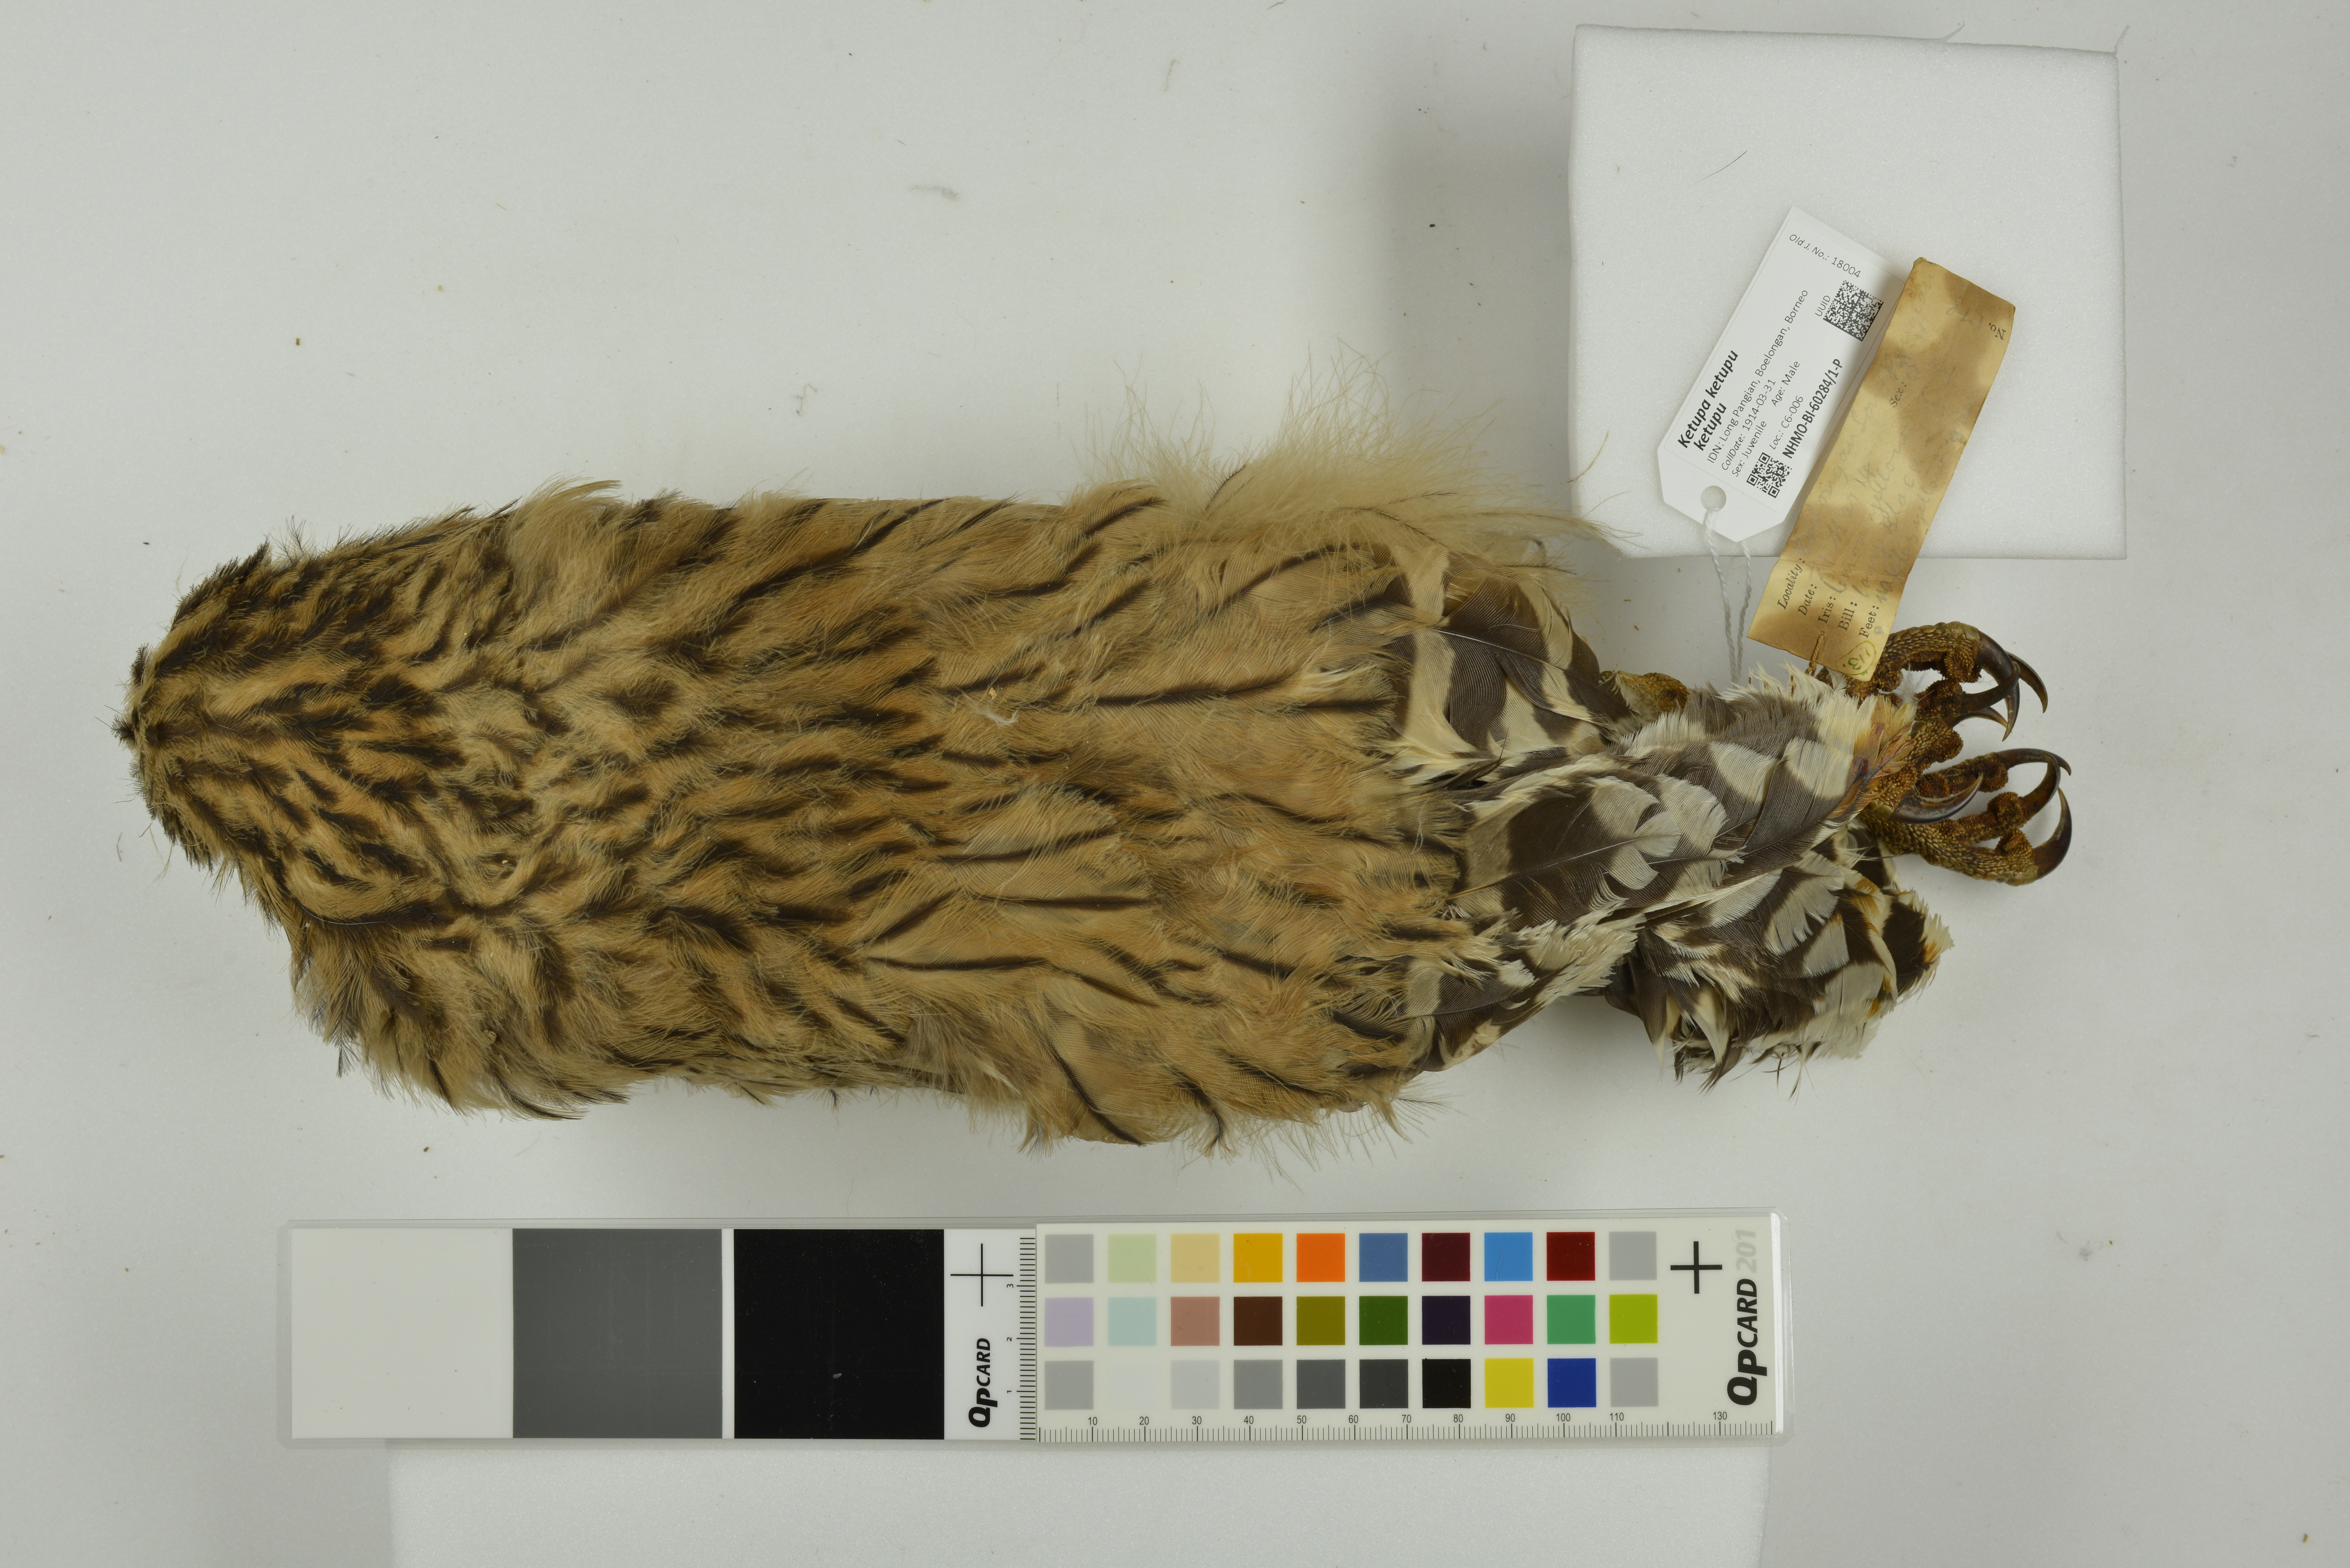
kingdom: Animalia
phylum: Chordata
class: Aves
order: Strigiformes
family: Strigidae
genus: Ketupa
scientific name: Ketupa ketupu
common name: Buffy fish-owl
